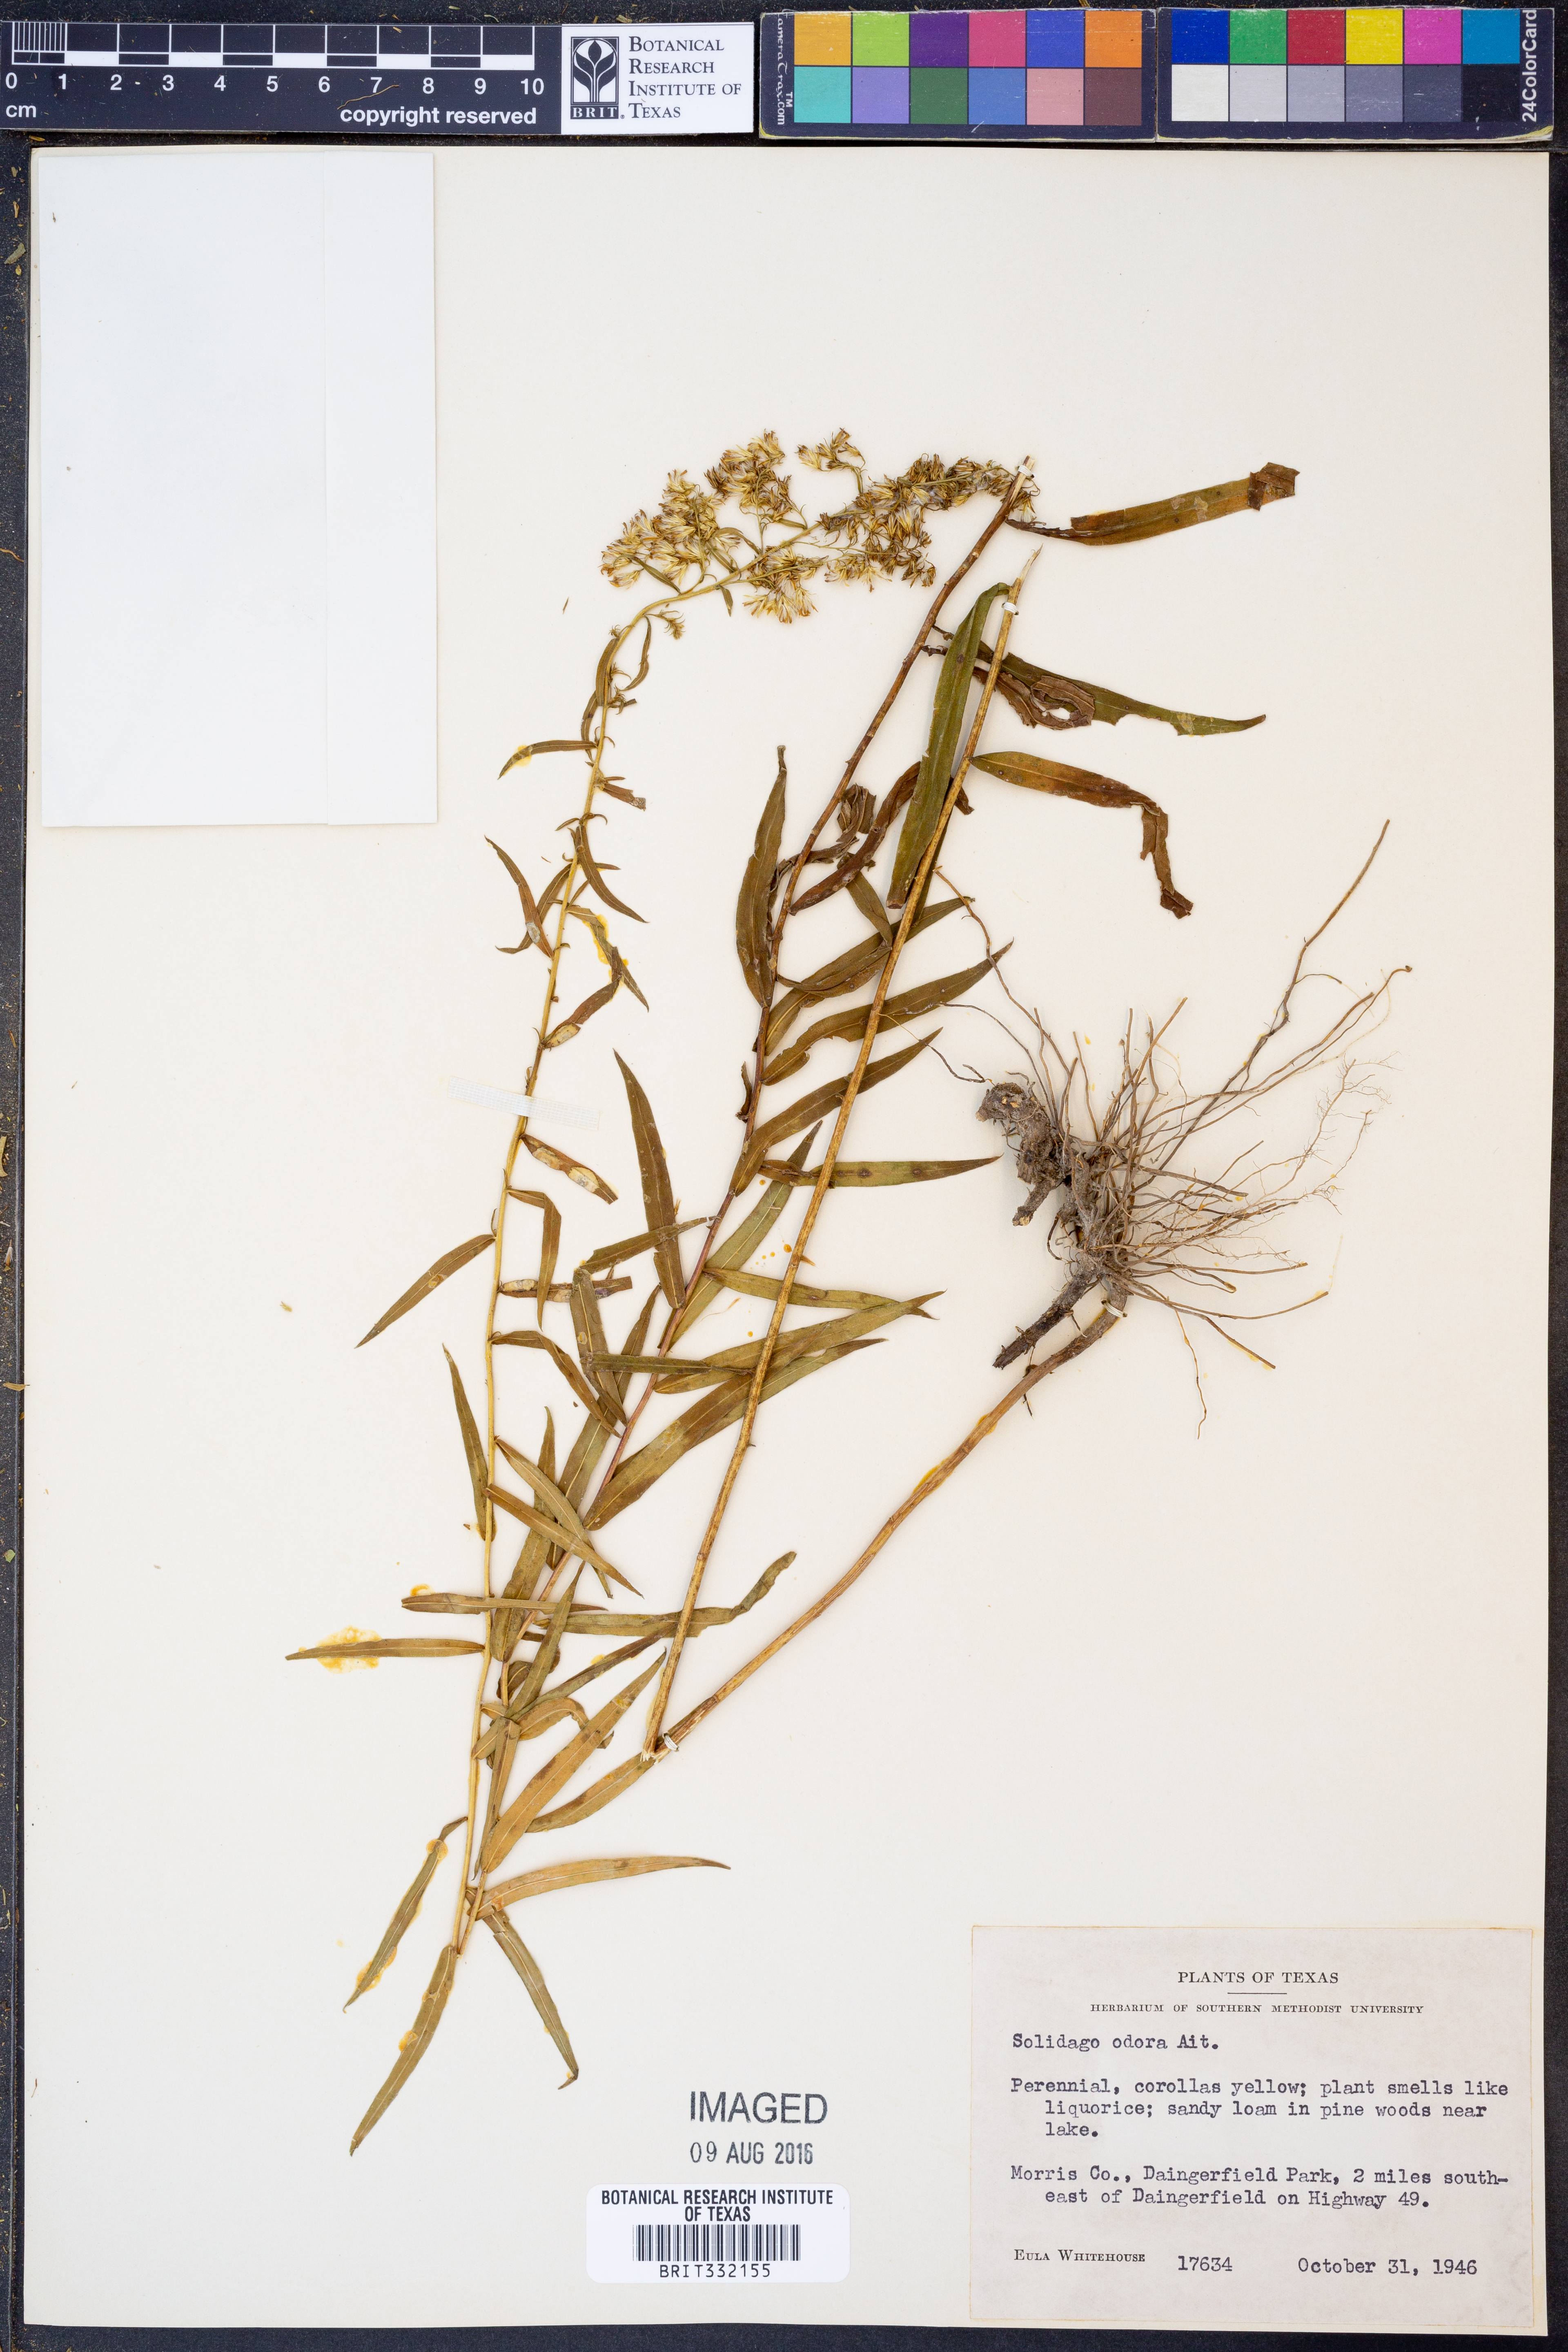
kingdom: Plantae
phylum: Tracheophyta
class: Magnoliopsida
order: Asterales
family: Asteraceae
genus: Solidago
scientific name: Solidago odora
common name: Anise-scented goldenrod
